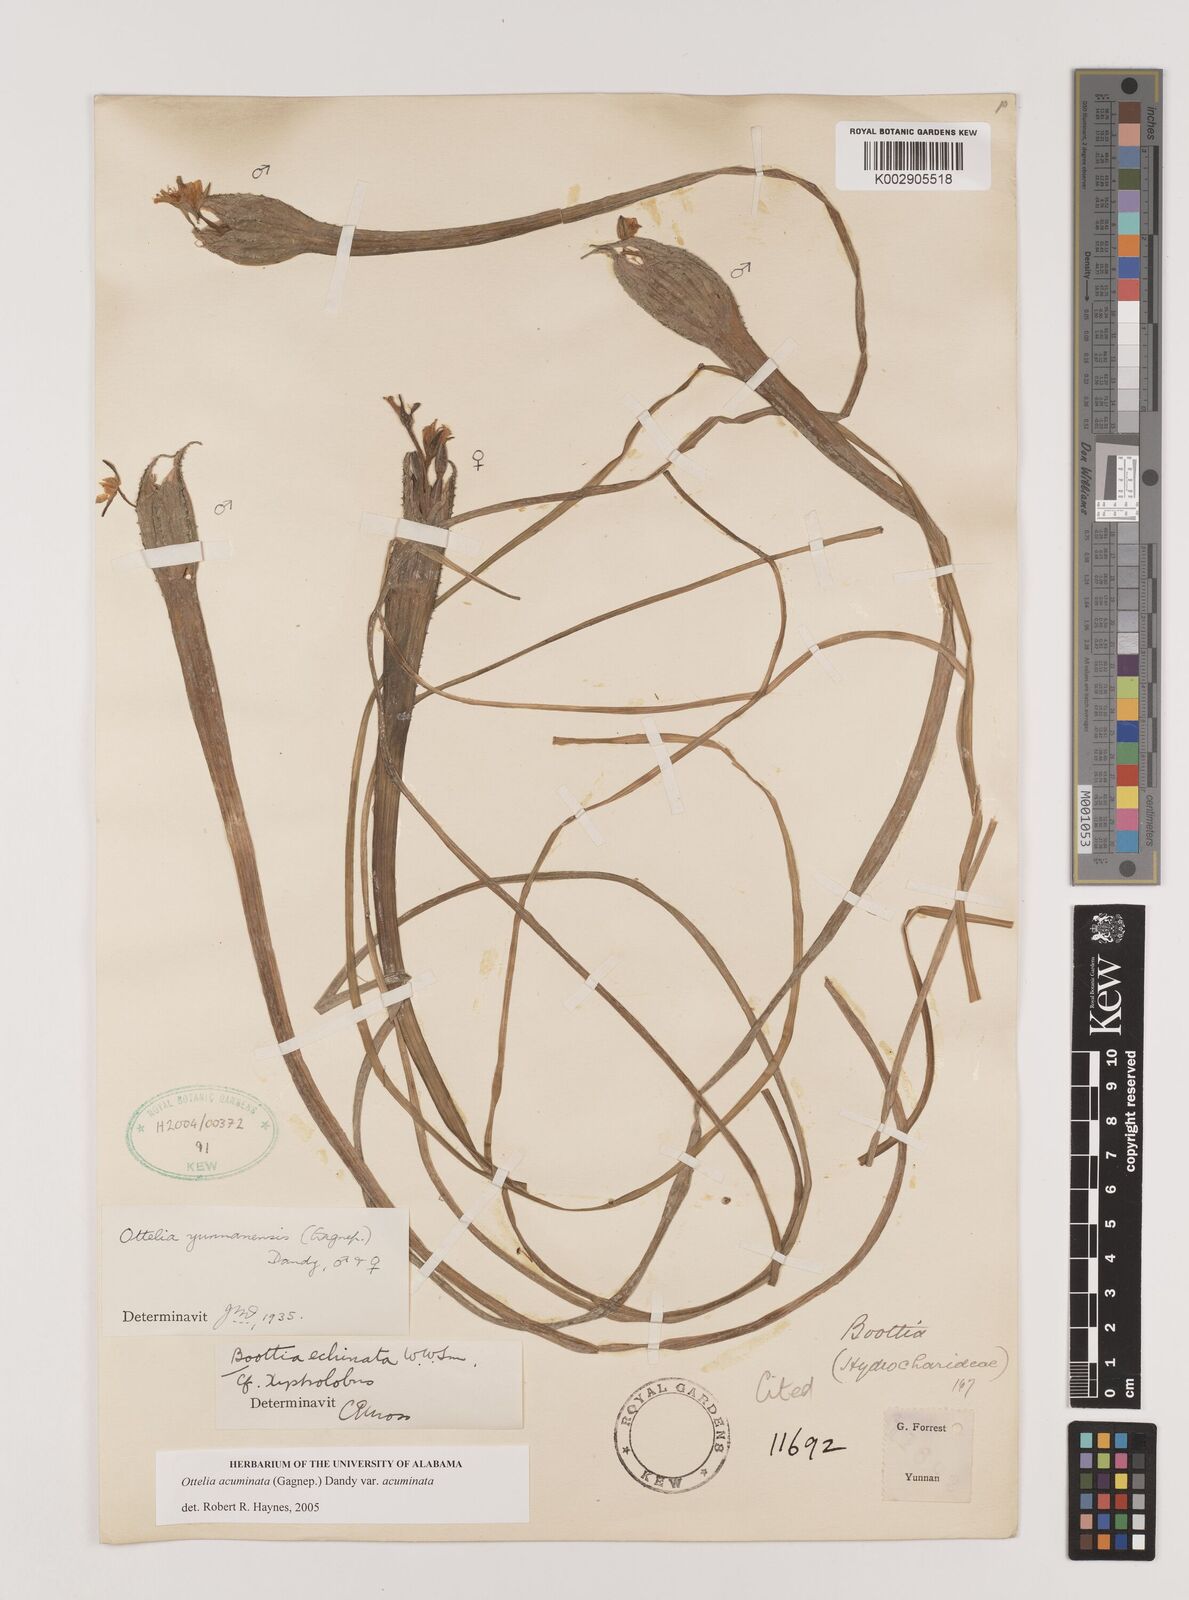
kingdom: Plantae
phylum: Tracheophyta
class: Liliopsida
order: Alismatales
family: Hydrocharitaceae
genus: Ottelia
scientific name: Ottelia acuminata
